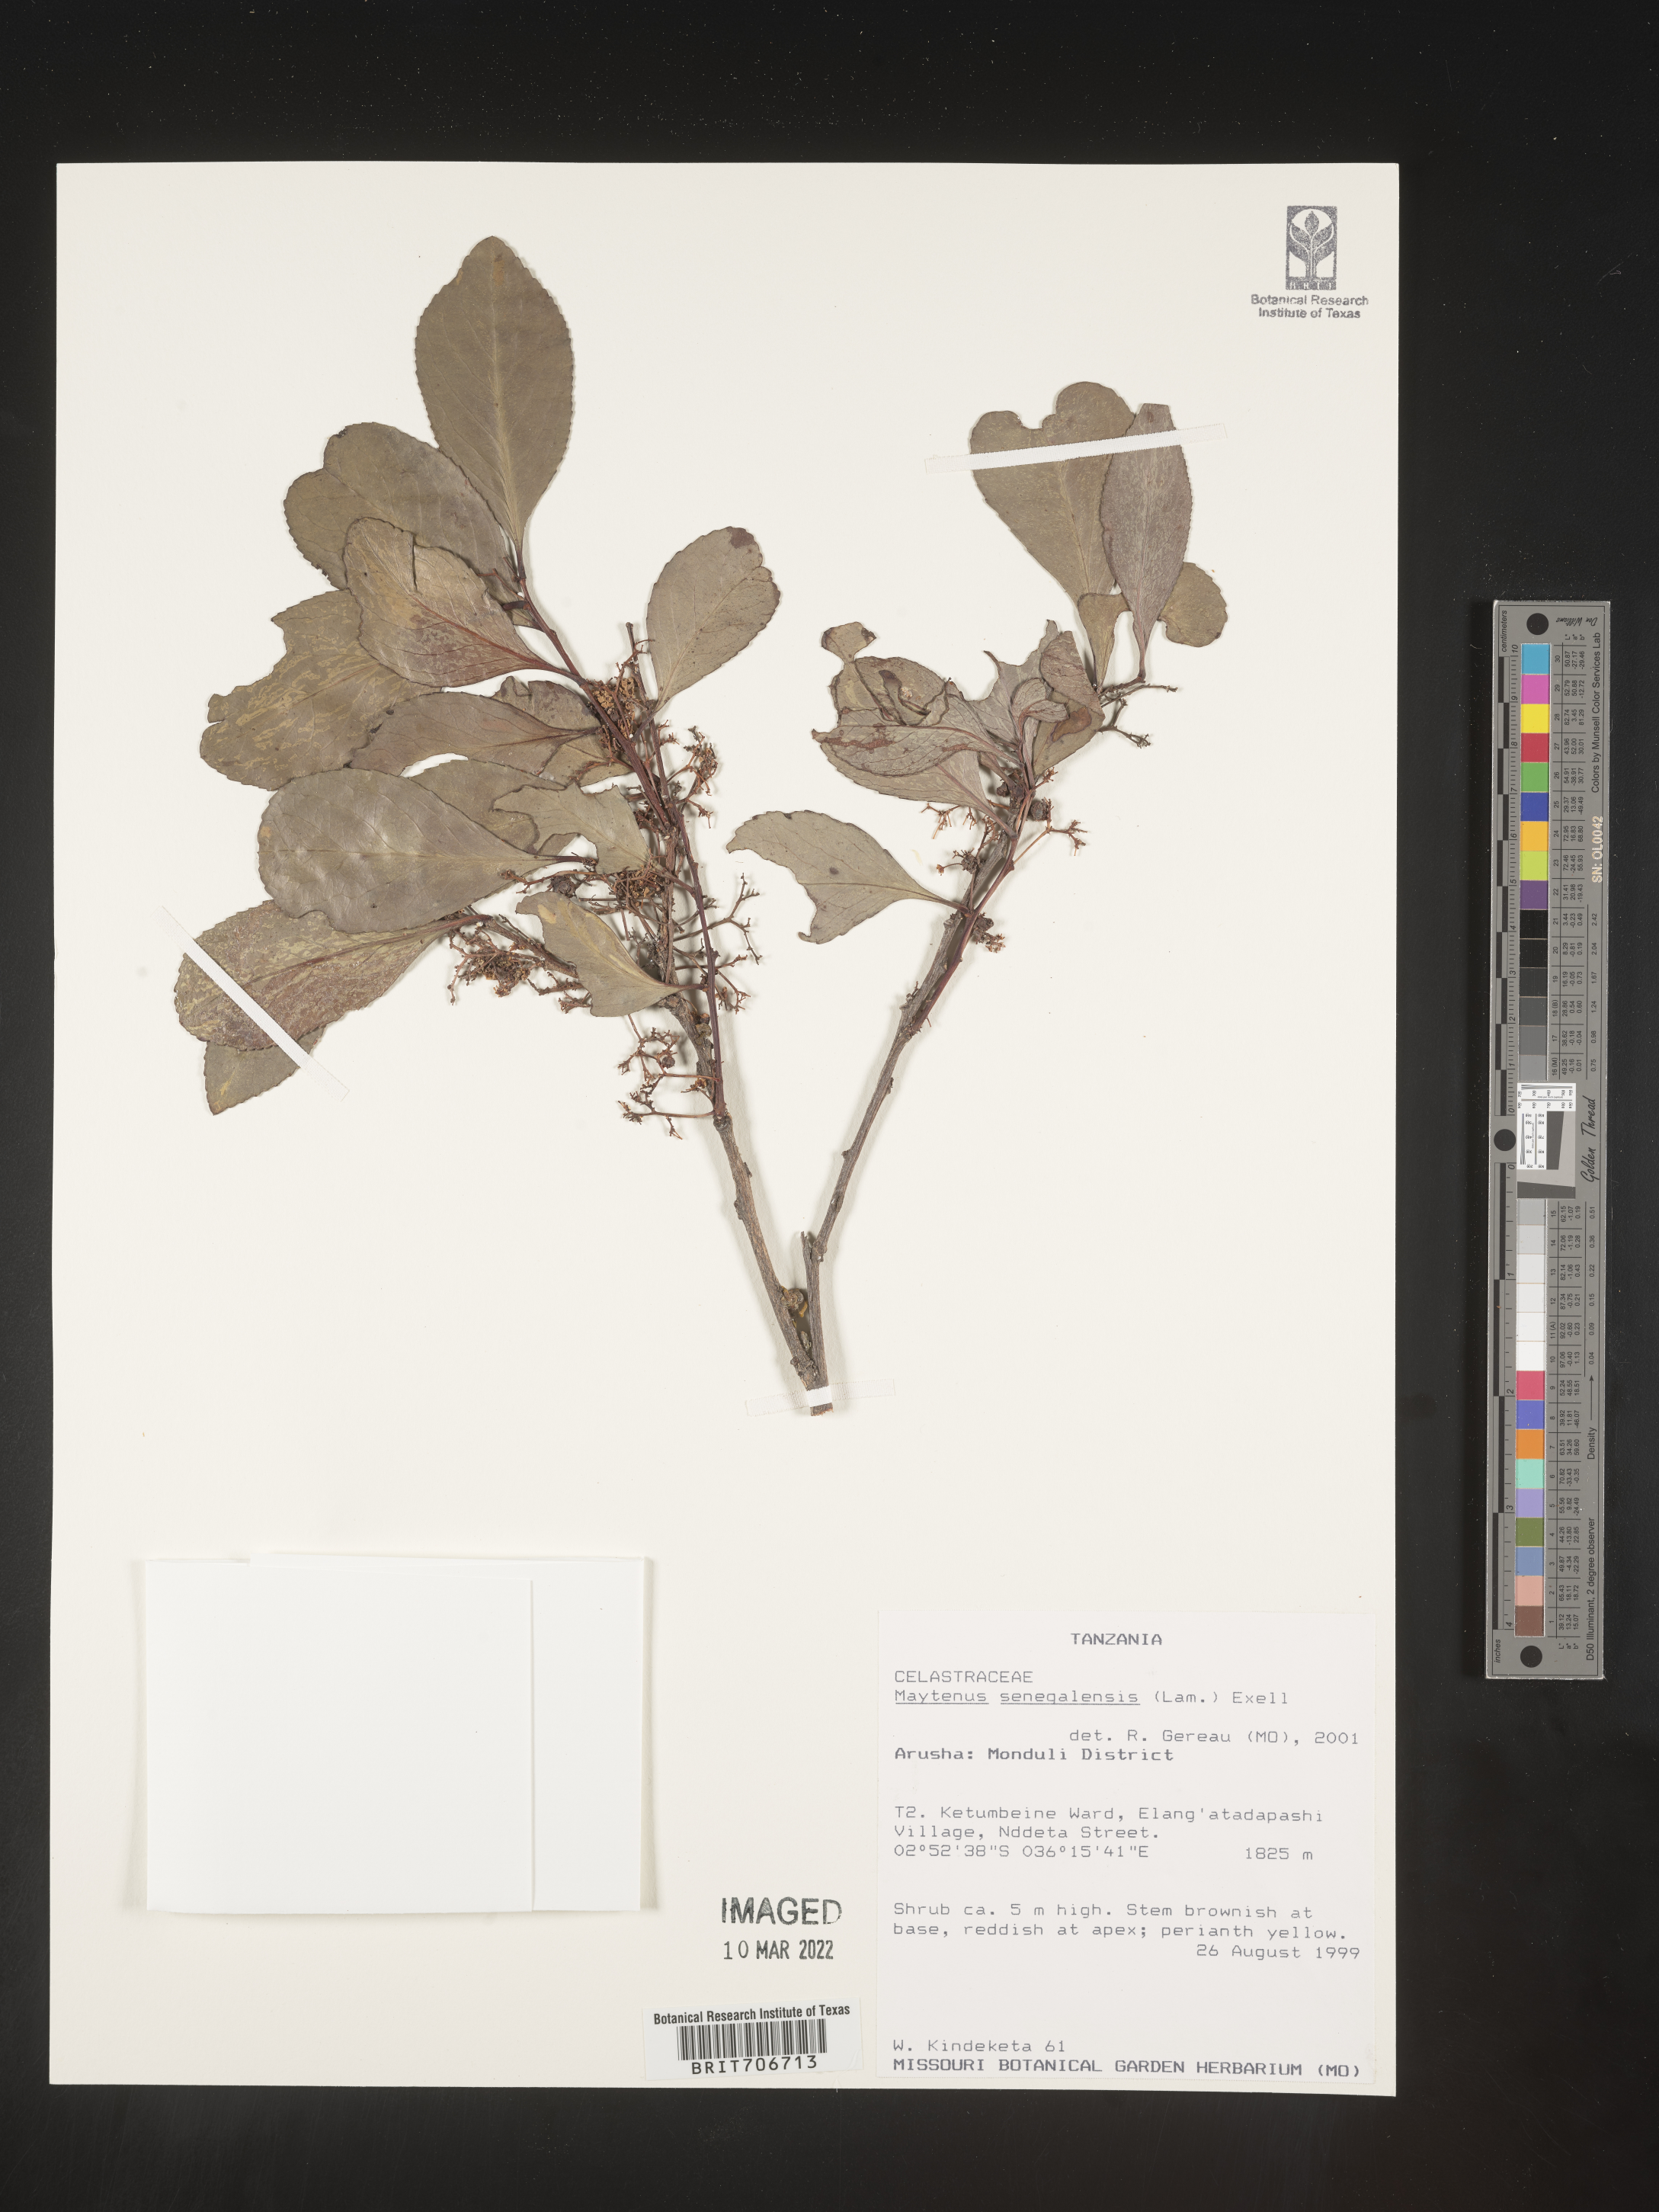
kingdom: Plantae
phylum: Tracheophyta
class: Magnoliopsida
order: Celastrales
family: Celastraceae
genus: Maytenus
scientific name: Maytenus
